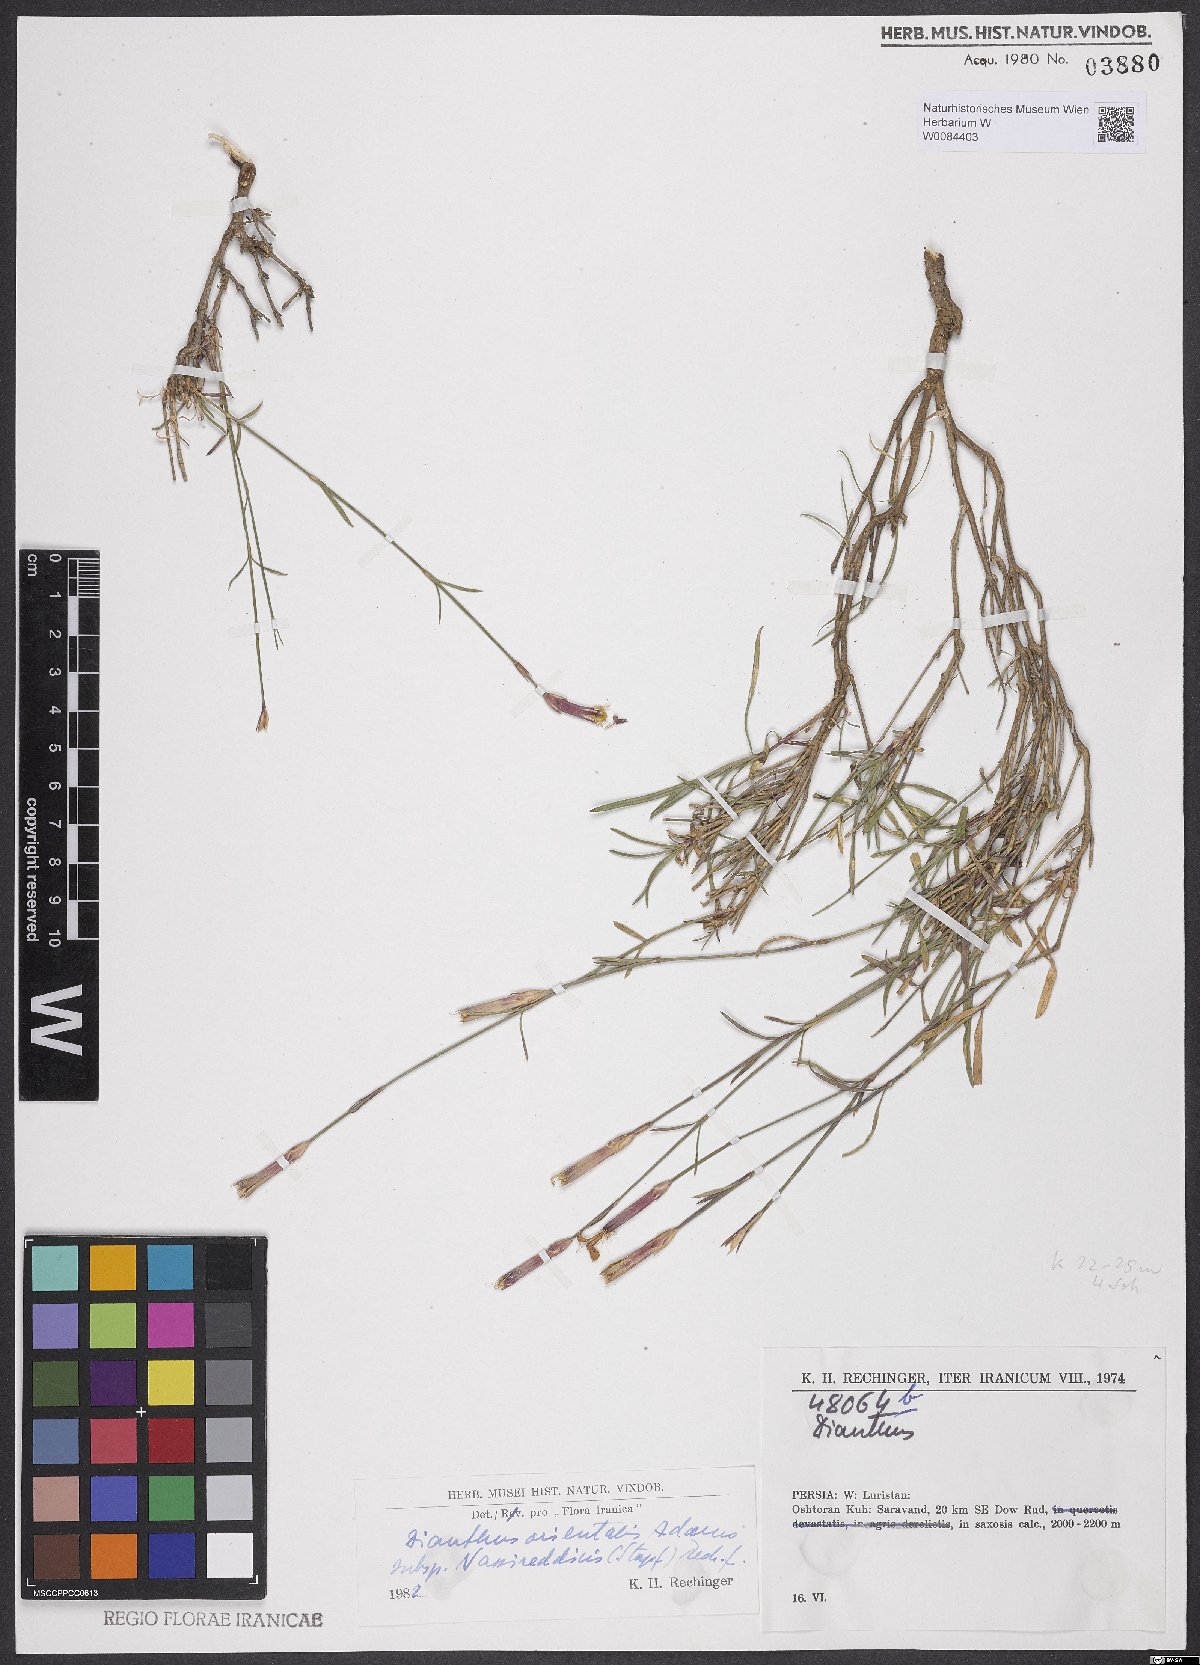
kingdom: Plantae
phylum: Tracheophyta
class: Magnoliopsida
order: Caryophyllales
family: Caryophyllaceae
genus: Dianthus
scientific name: Dianthus orientalis
